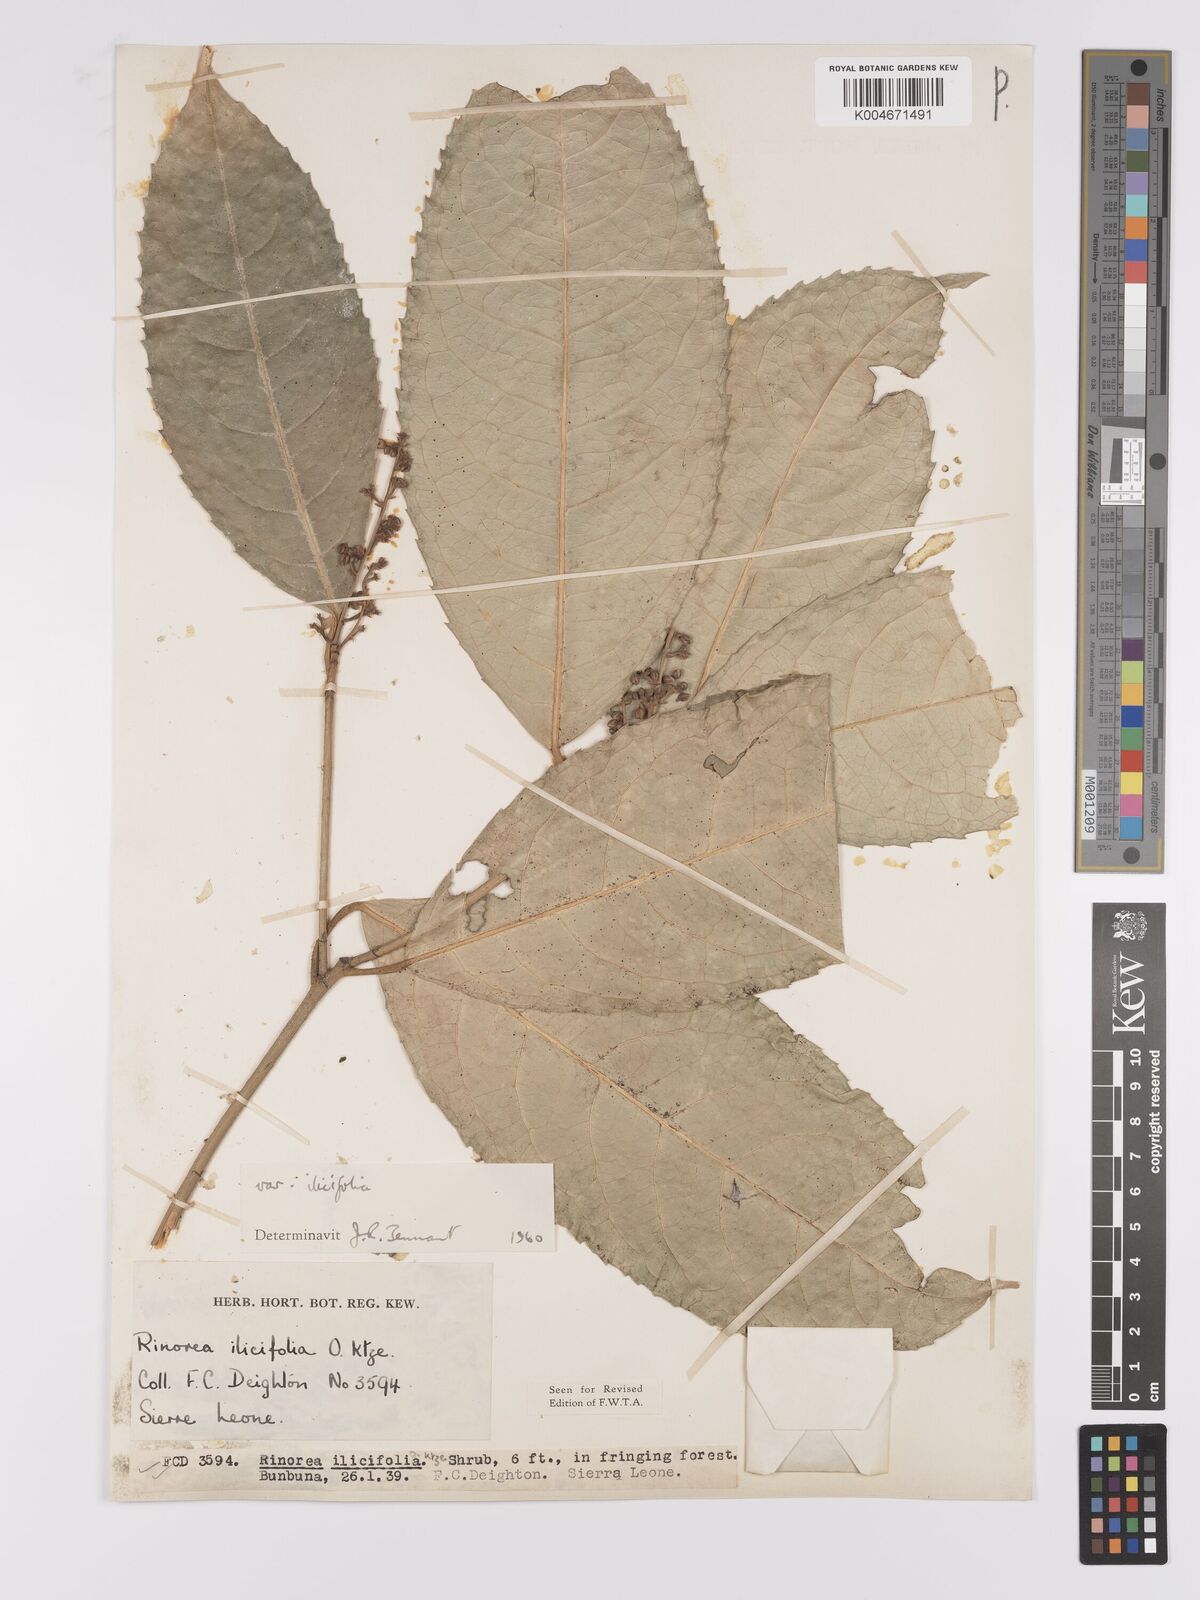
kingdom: Plantae
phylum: Tracheophyta
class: Magnoliopsida
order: Malpighiales
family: Violaceae
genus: Rinorea
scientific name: Rinorea ilicifolia
